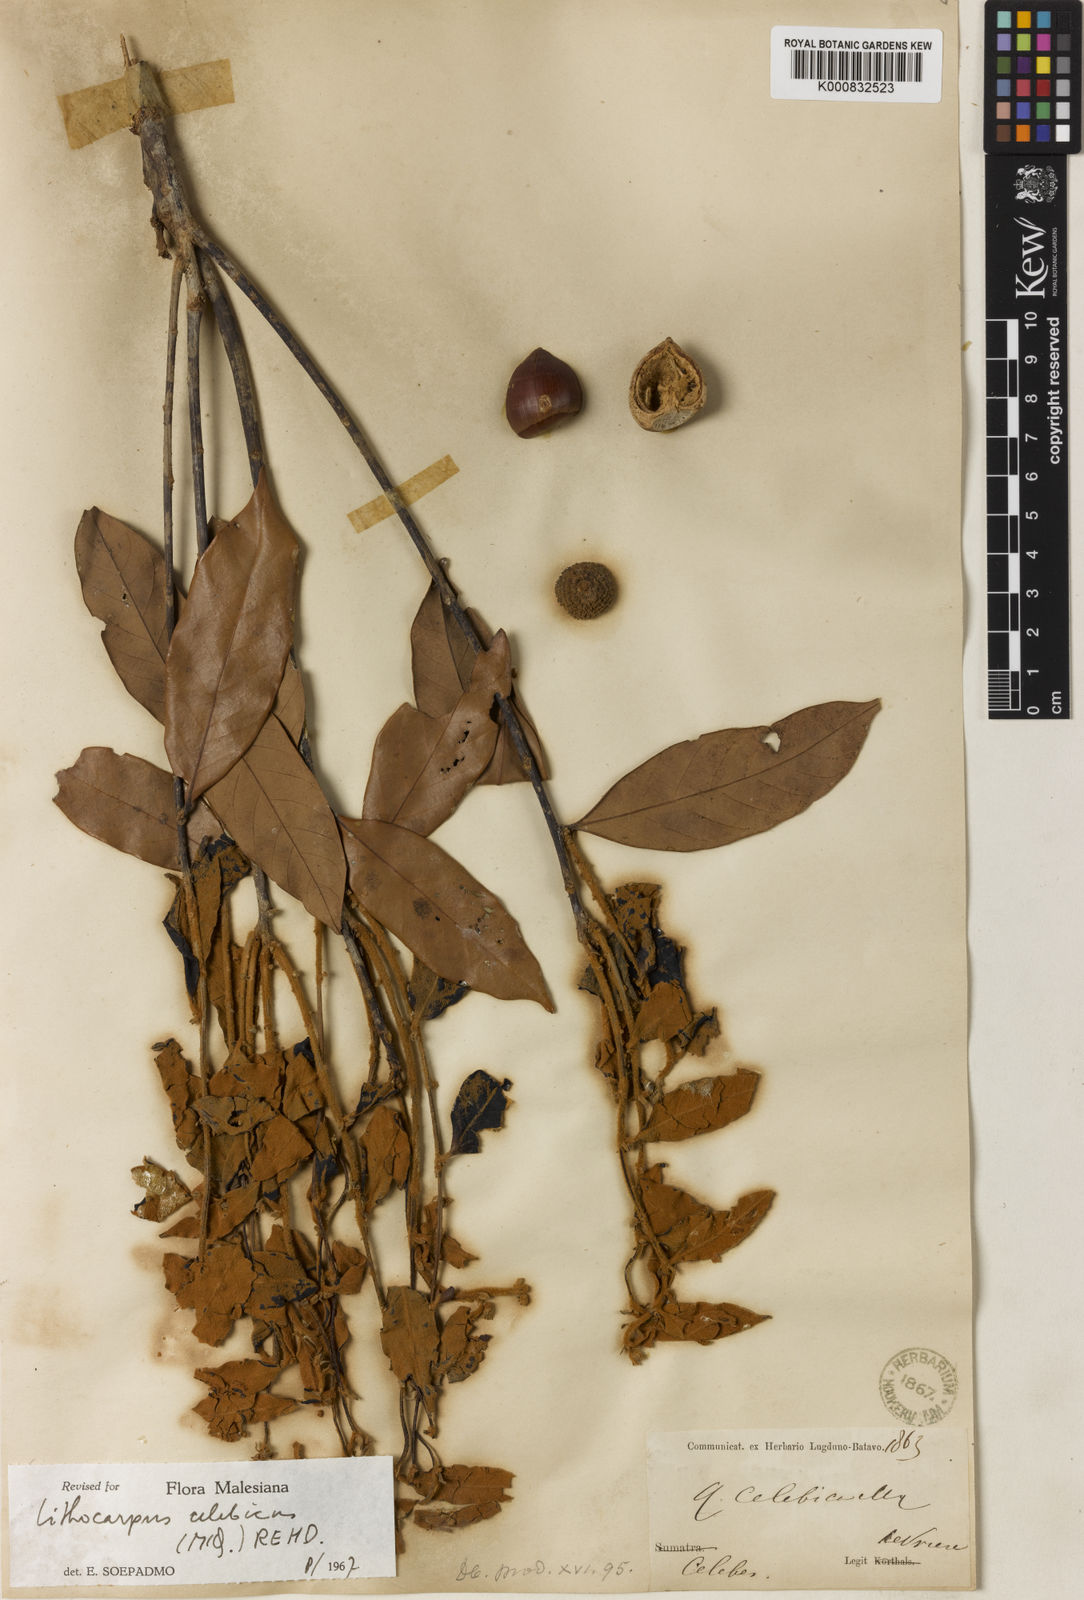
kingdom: Plantae
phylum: Tracheophyta
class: Magnoliopsida
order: Fagales
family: Fagaceae
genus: Lithocarpus
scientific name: Lithocarpus celebicus
